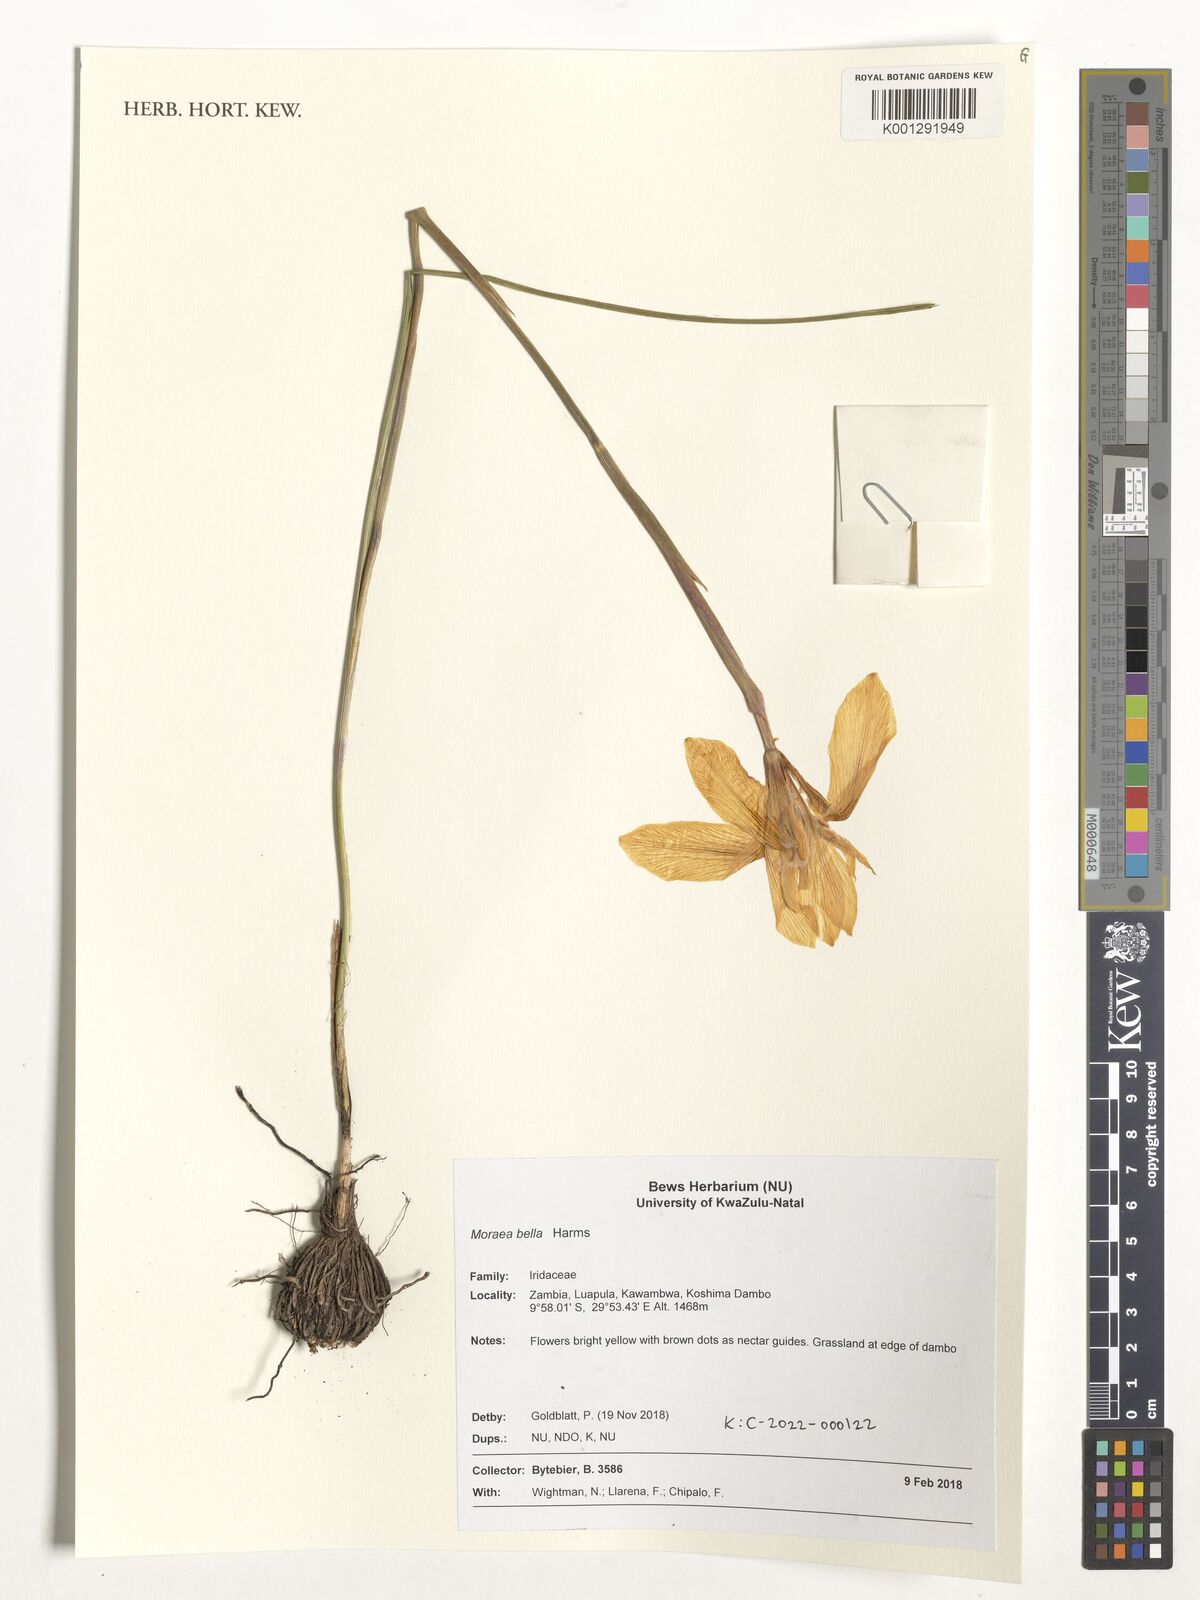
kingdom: Plantae
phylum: Tracheophyta
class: Liliopsida
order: Asparagales
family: Iridaceae
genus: Moraea
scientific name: Moraea bella
